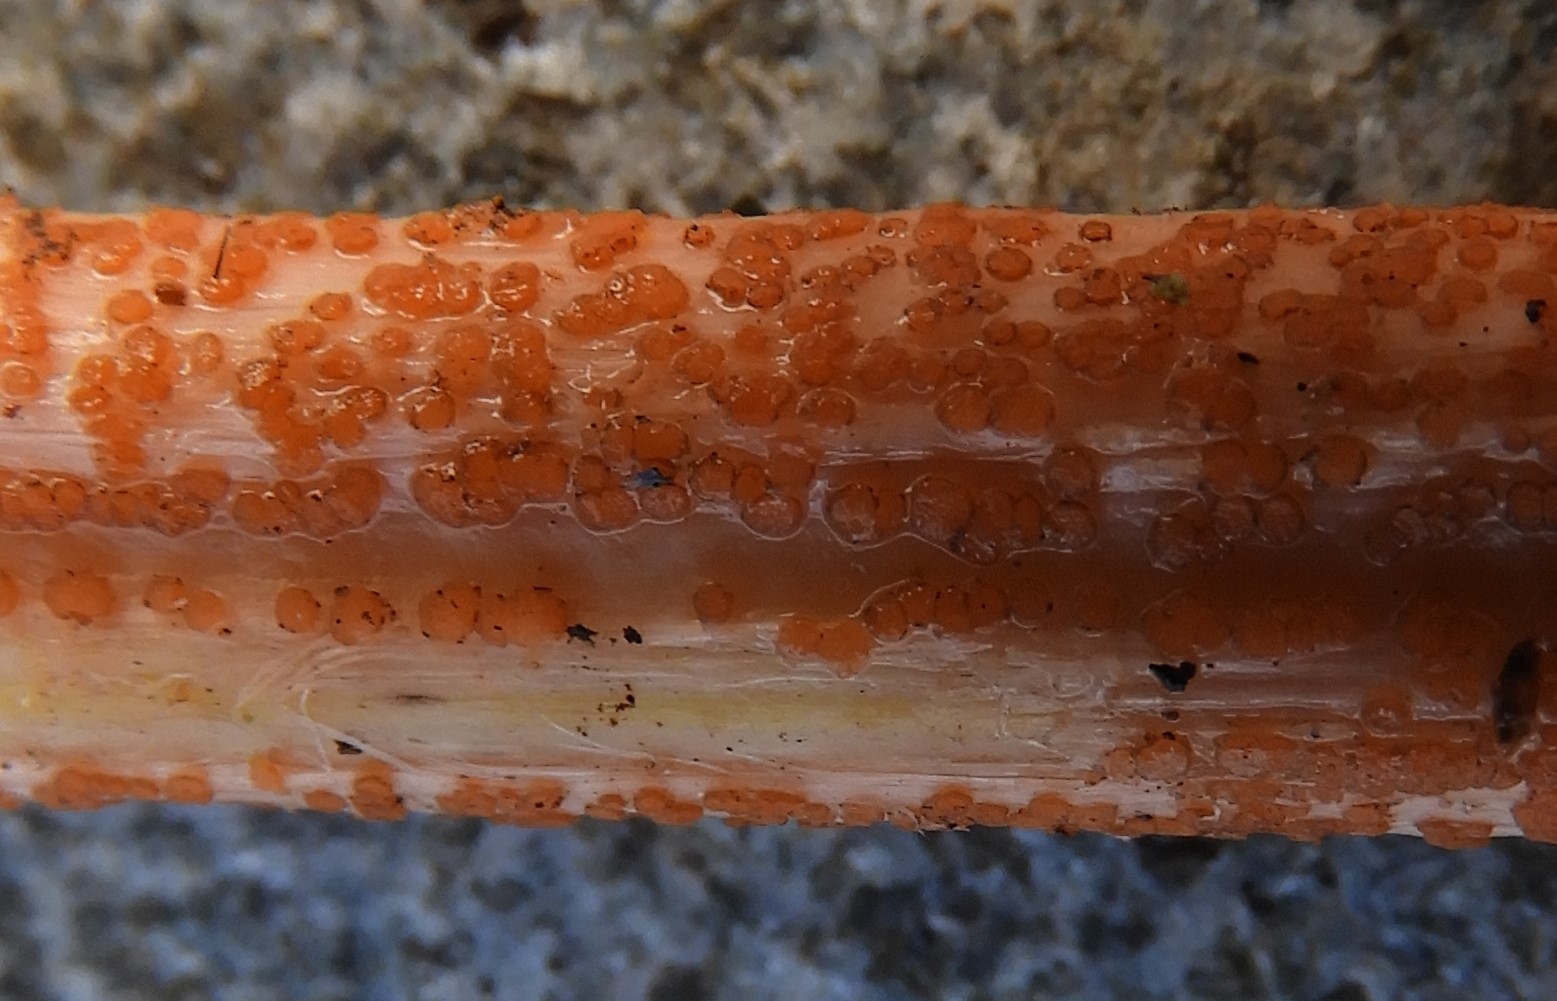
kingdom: Fungi
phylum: Ascomycota
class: Leotiomycetes
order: Helotiales
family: Calloriaceae
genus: Calloria
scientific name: Calloria urticae
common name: nælde-orangeskive
